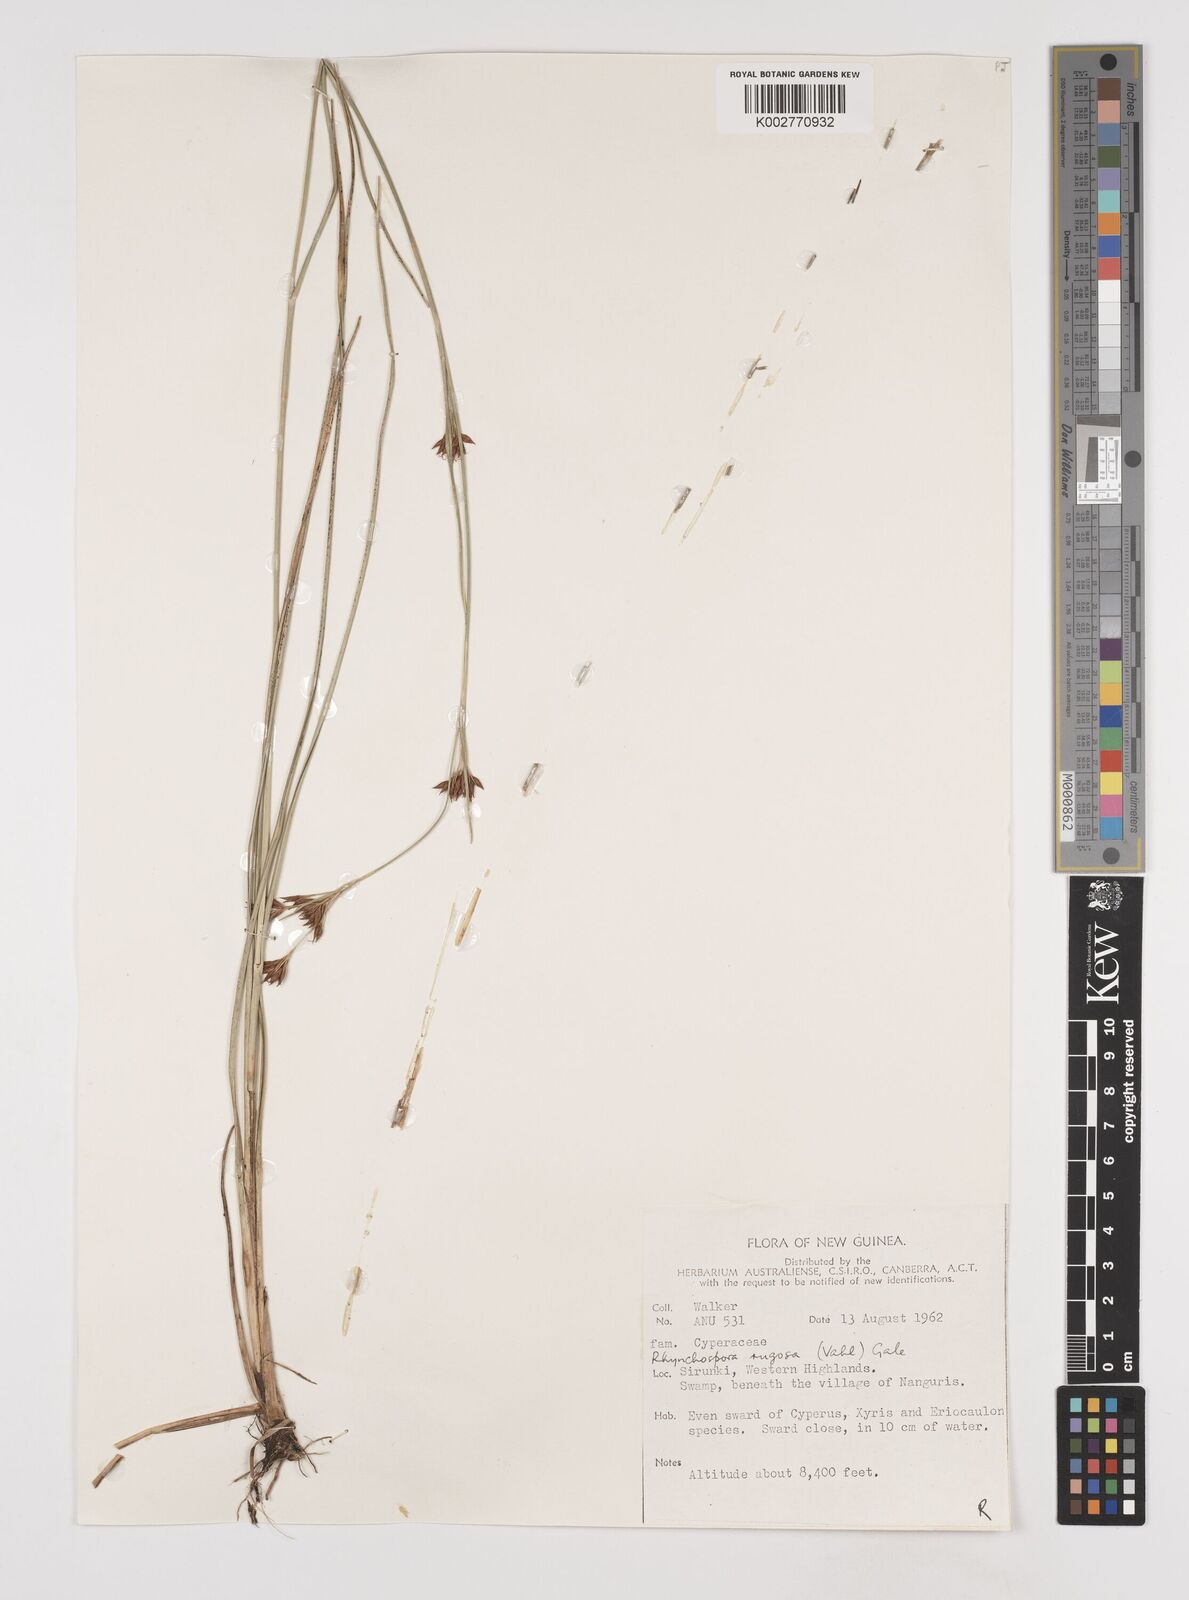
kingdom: Plantae
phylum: Tracheophyta
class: Liliopsida
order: Poales
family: Cyperaceae
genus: Rhynchospora
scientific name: Rhynchospora rugosa
